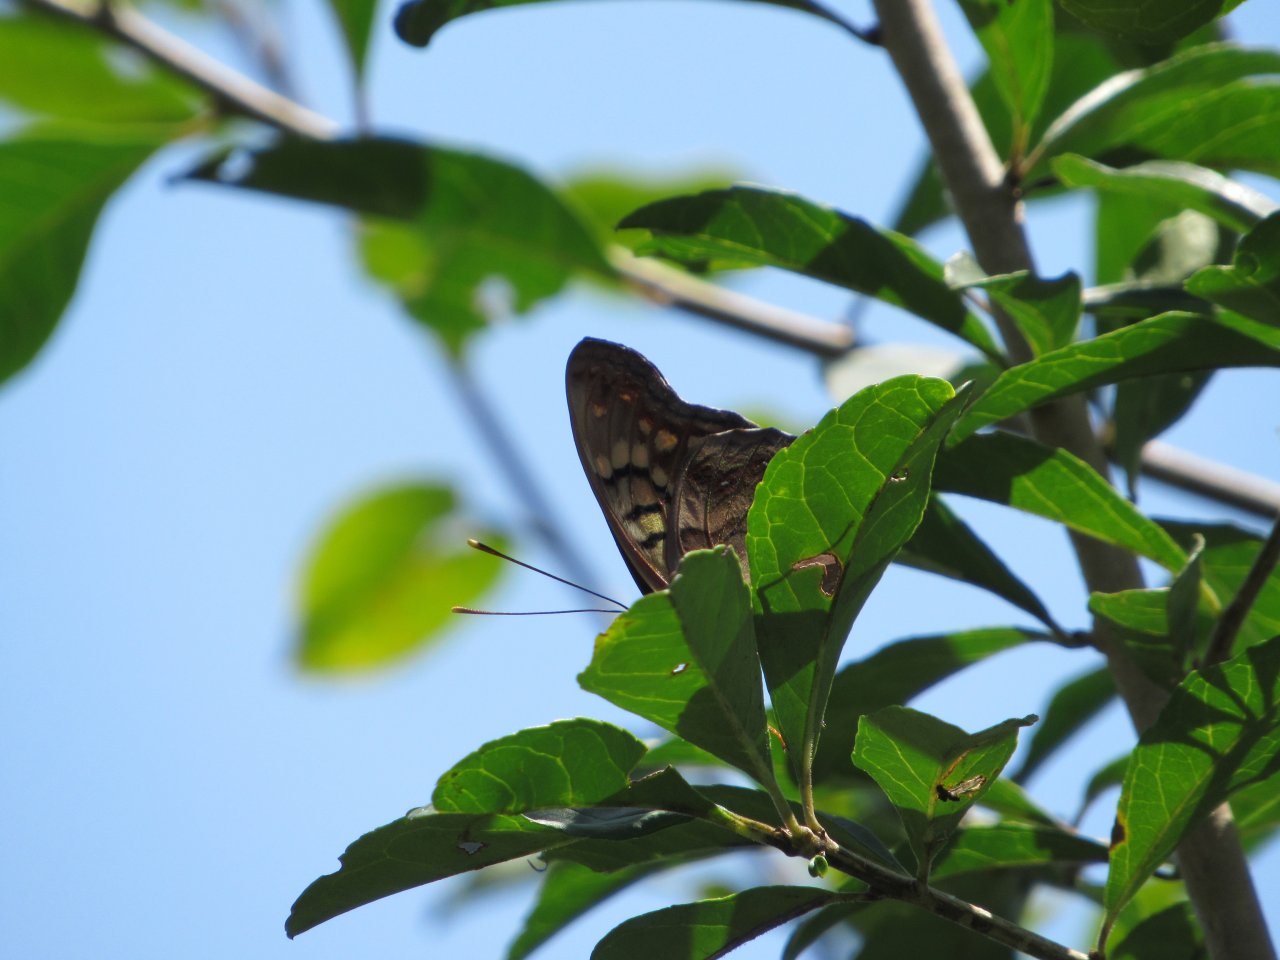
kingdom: Animalia
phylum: Arthropoda
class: Insecta
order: Lepidoptera
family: Nymphalidae
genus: Asterocampa
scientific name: Asterocampa clyton
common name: Tawny Emperor
